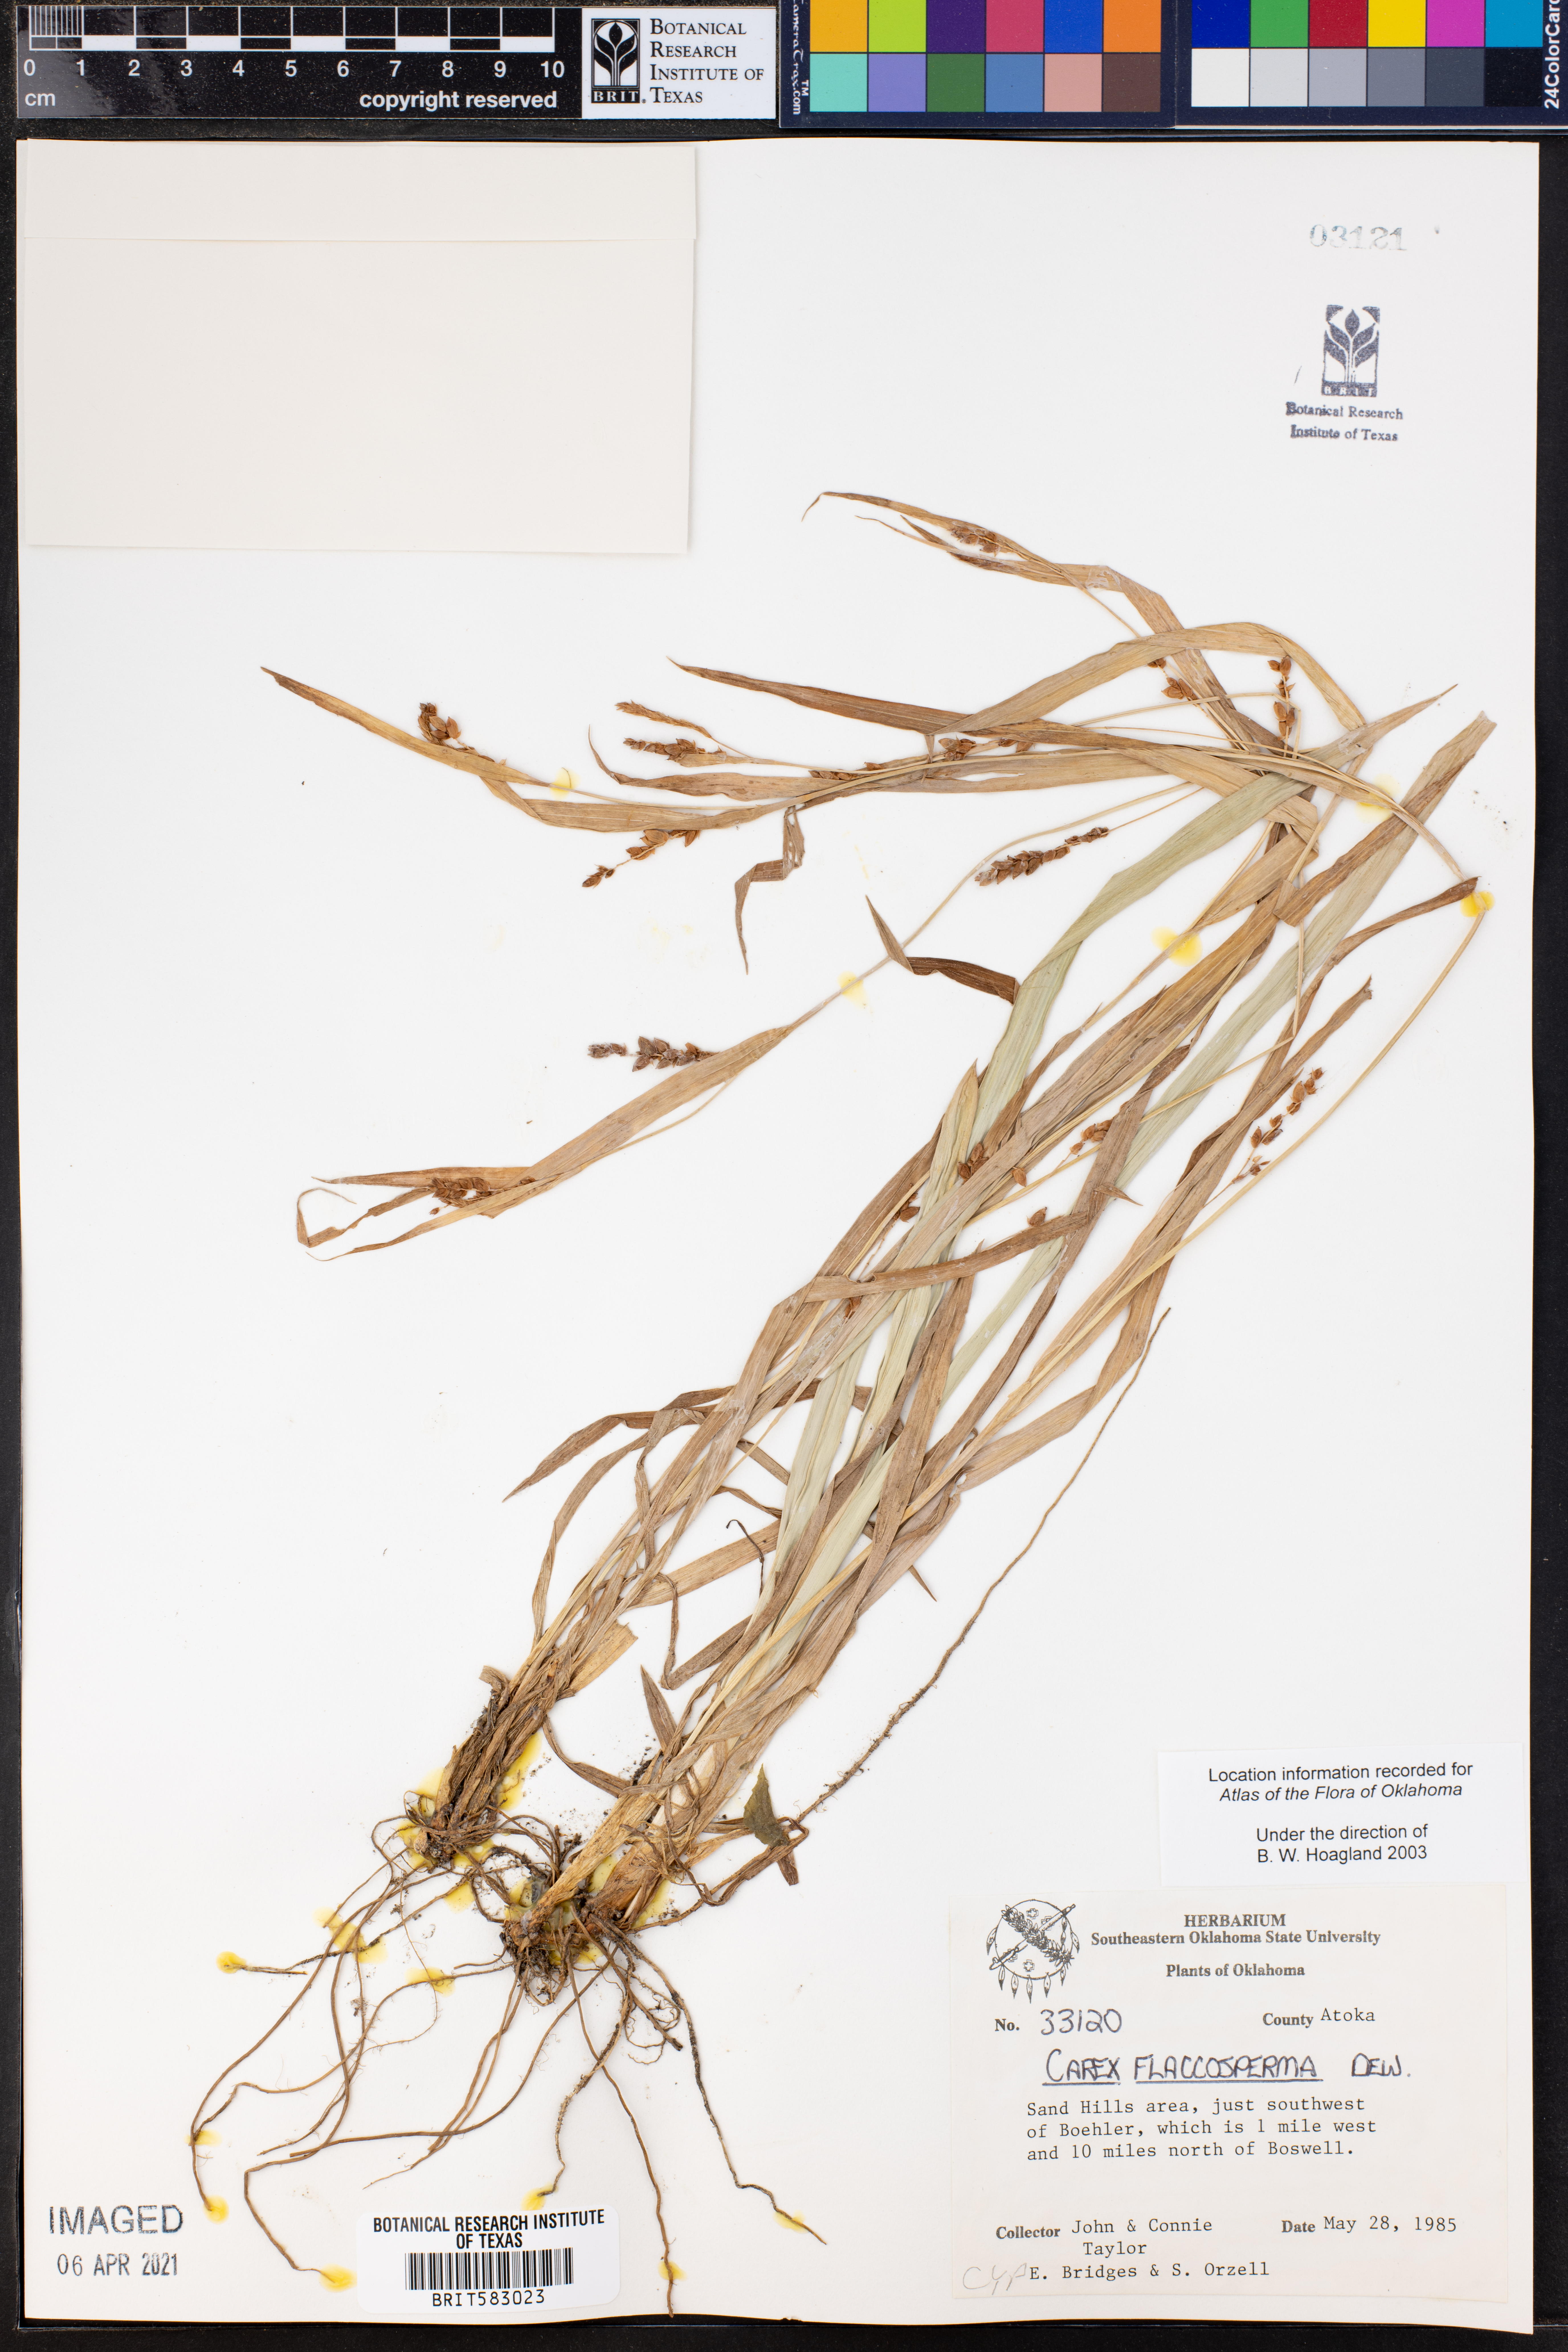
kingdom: Plantae
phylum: Tracheophyta
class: Liliopsida
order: Poales
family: Cyperaceae
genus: Carex
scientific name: Carex flaccosperma
